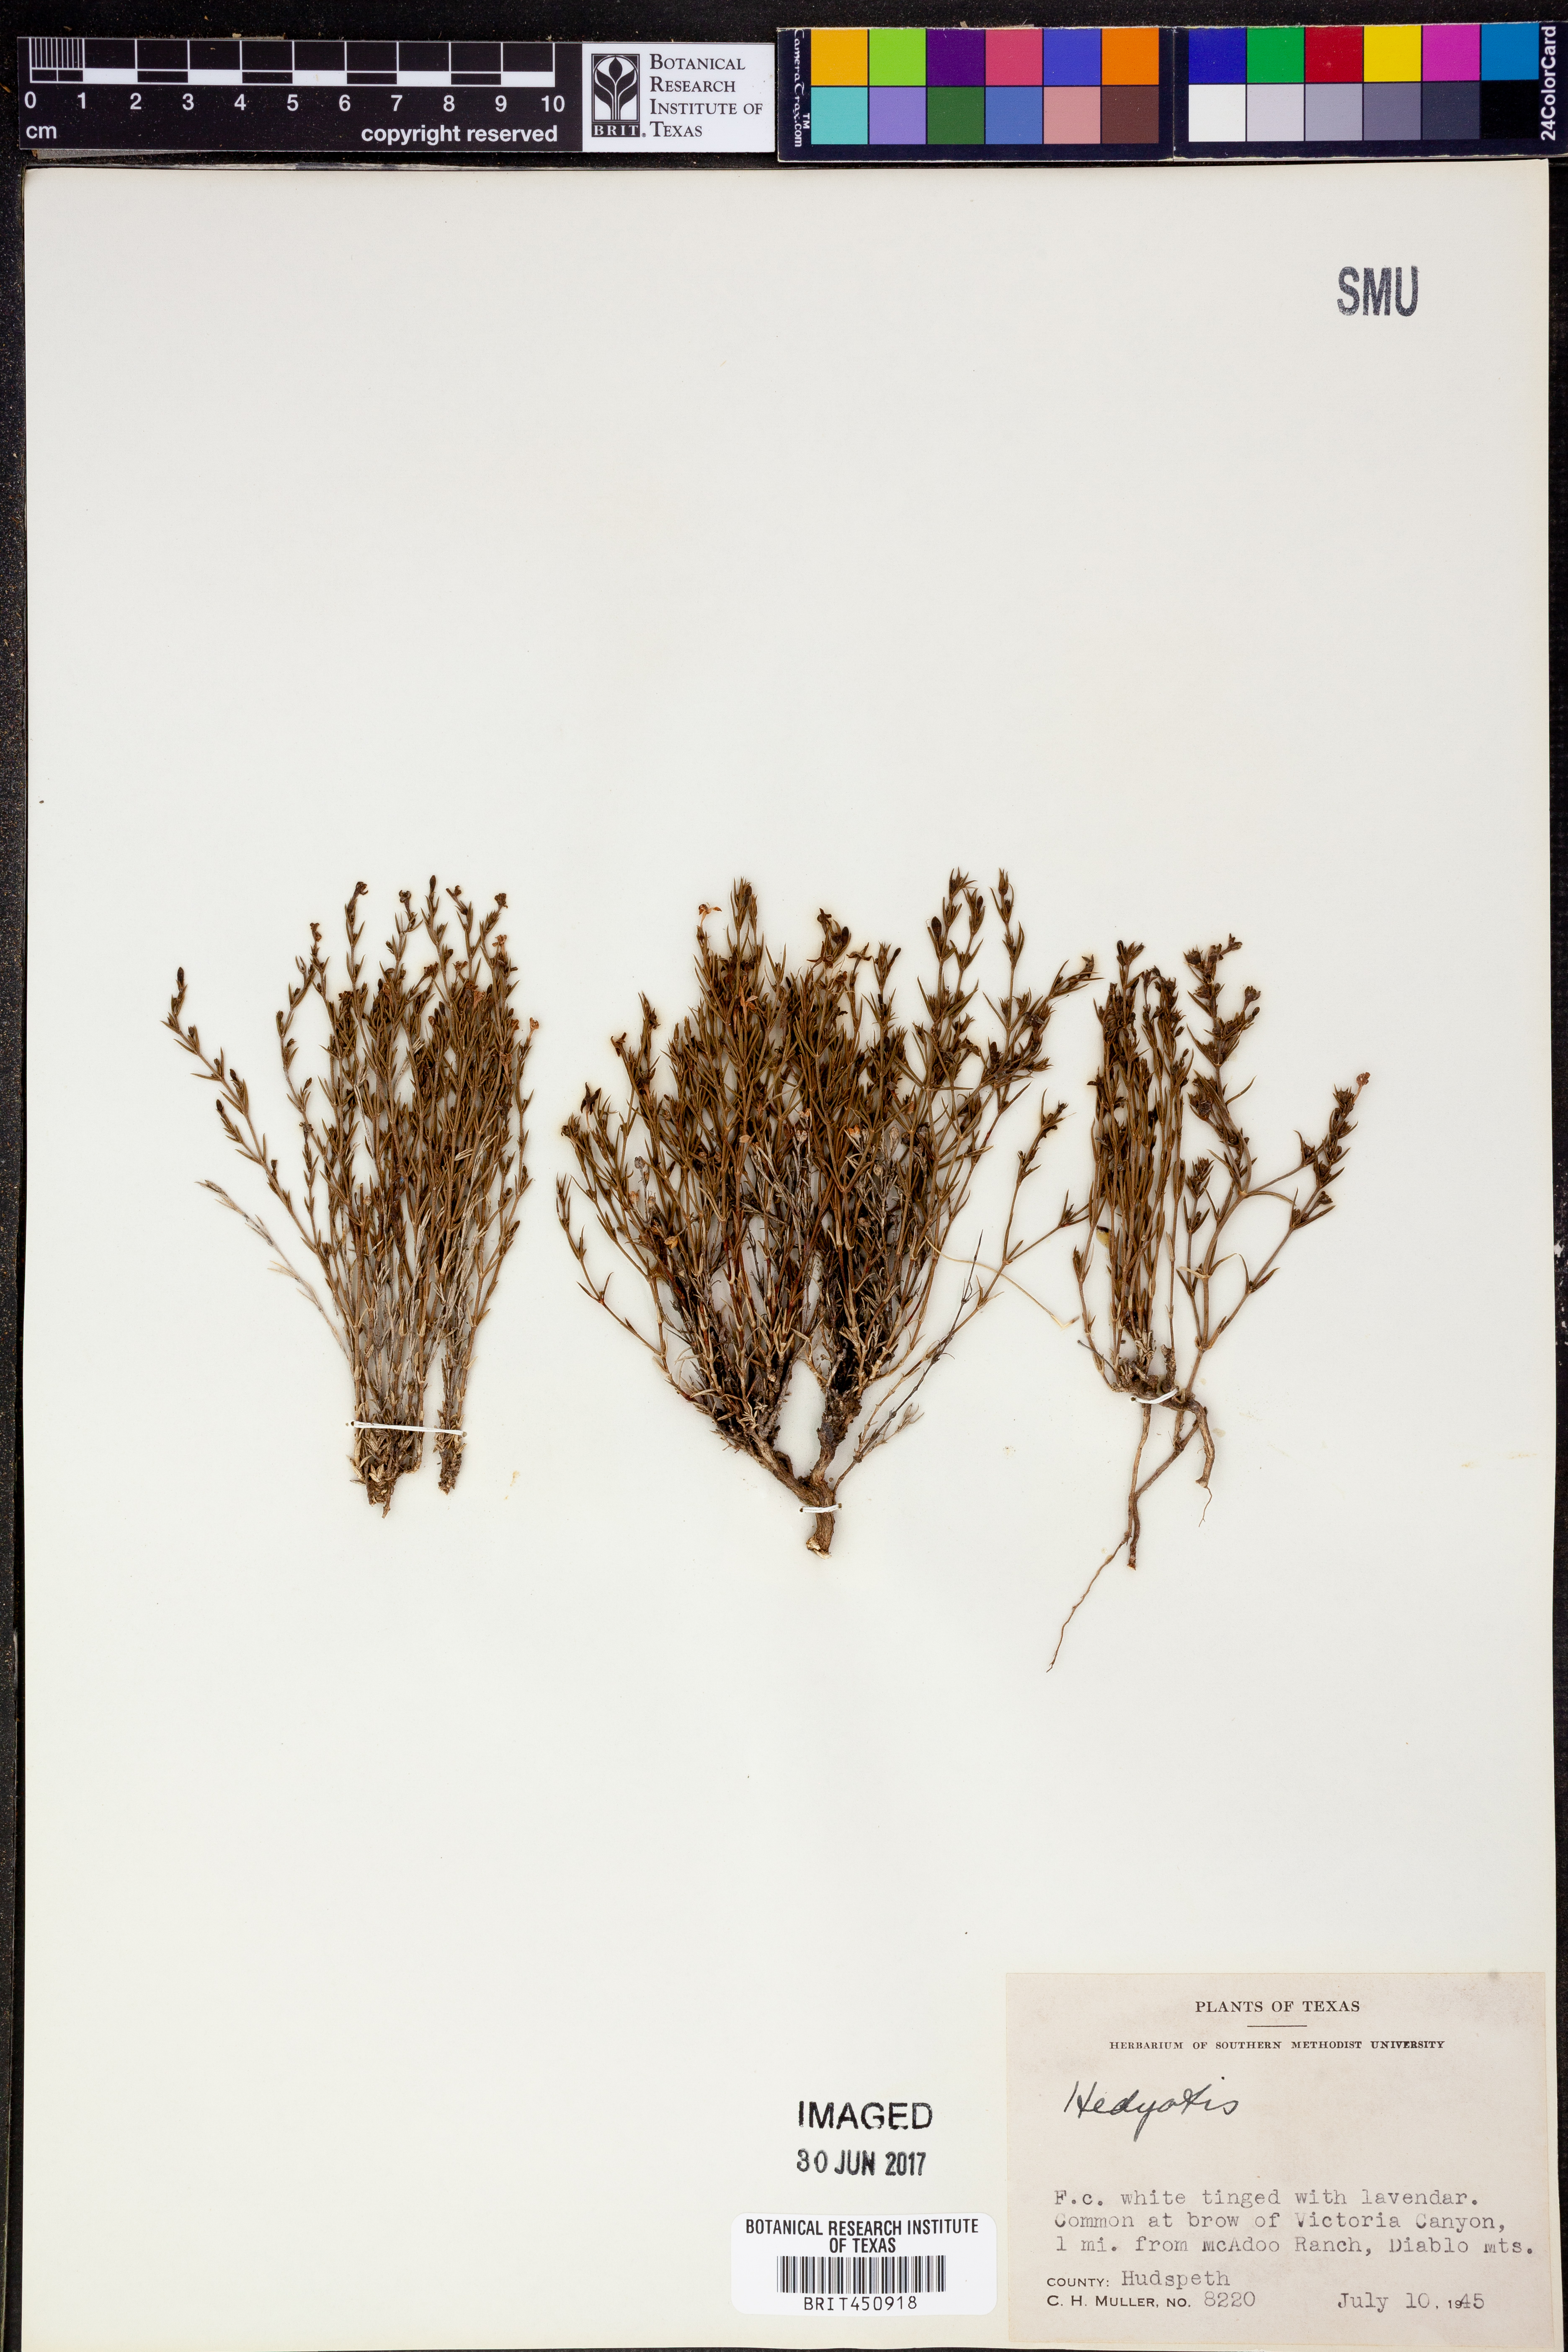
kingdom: Plantae
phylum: Tracheophyta
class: Magnoliopsida
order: Gentianales
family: Rubiaceae
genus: Hedyotis
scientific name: Hedyotis
